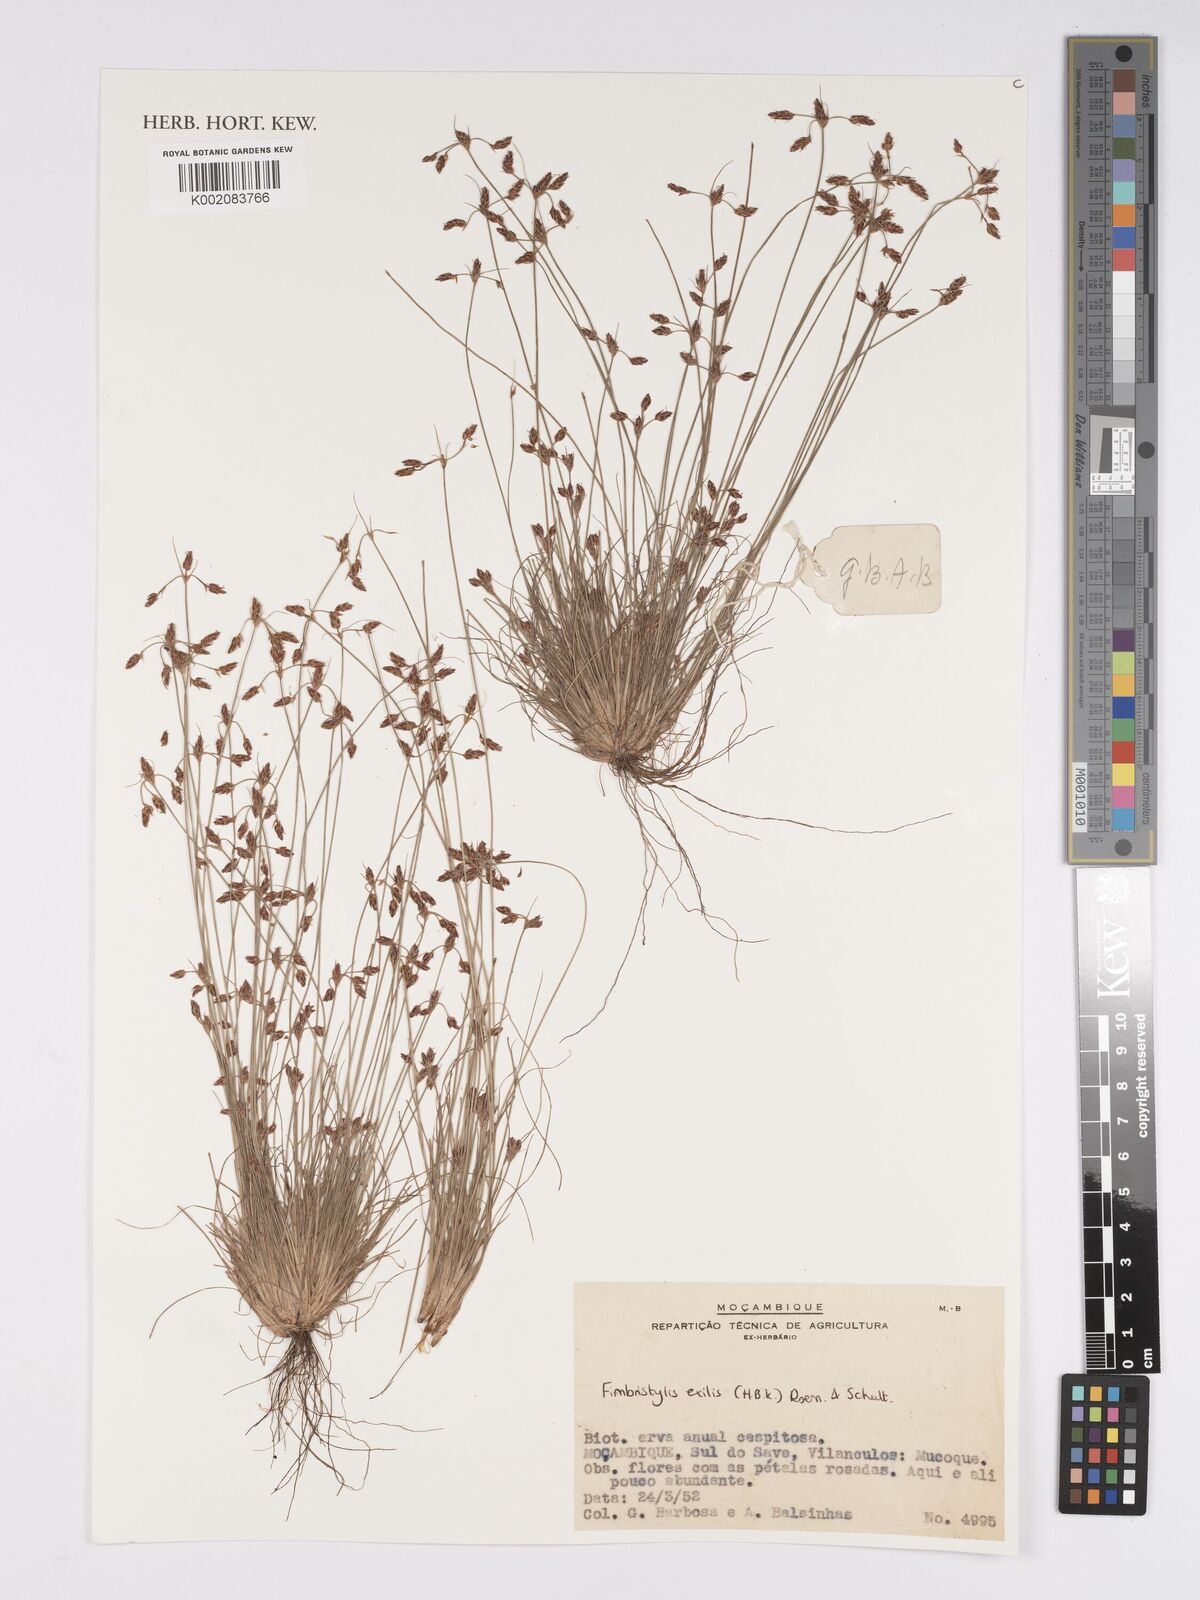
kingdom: Plantae
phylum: Tracheophyta
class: Liliopsida
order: Poales
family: Cyperaceae
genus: Bulbostylis
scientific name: Bulbostylis hispidula
